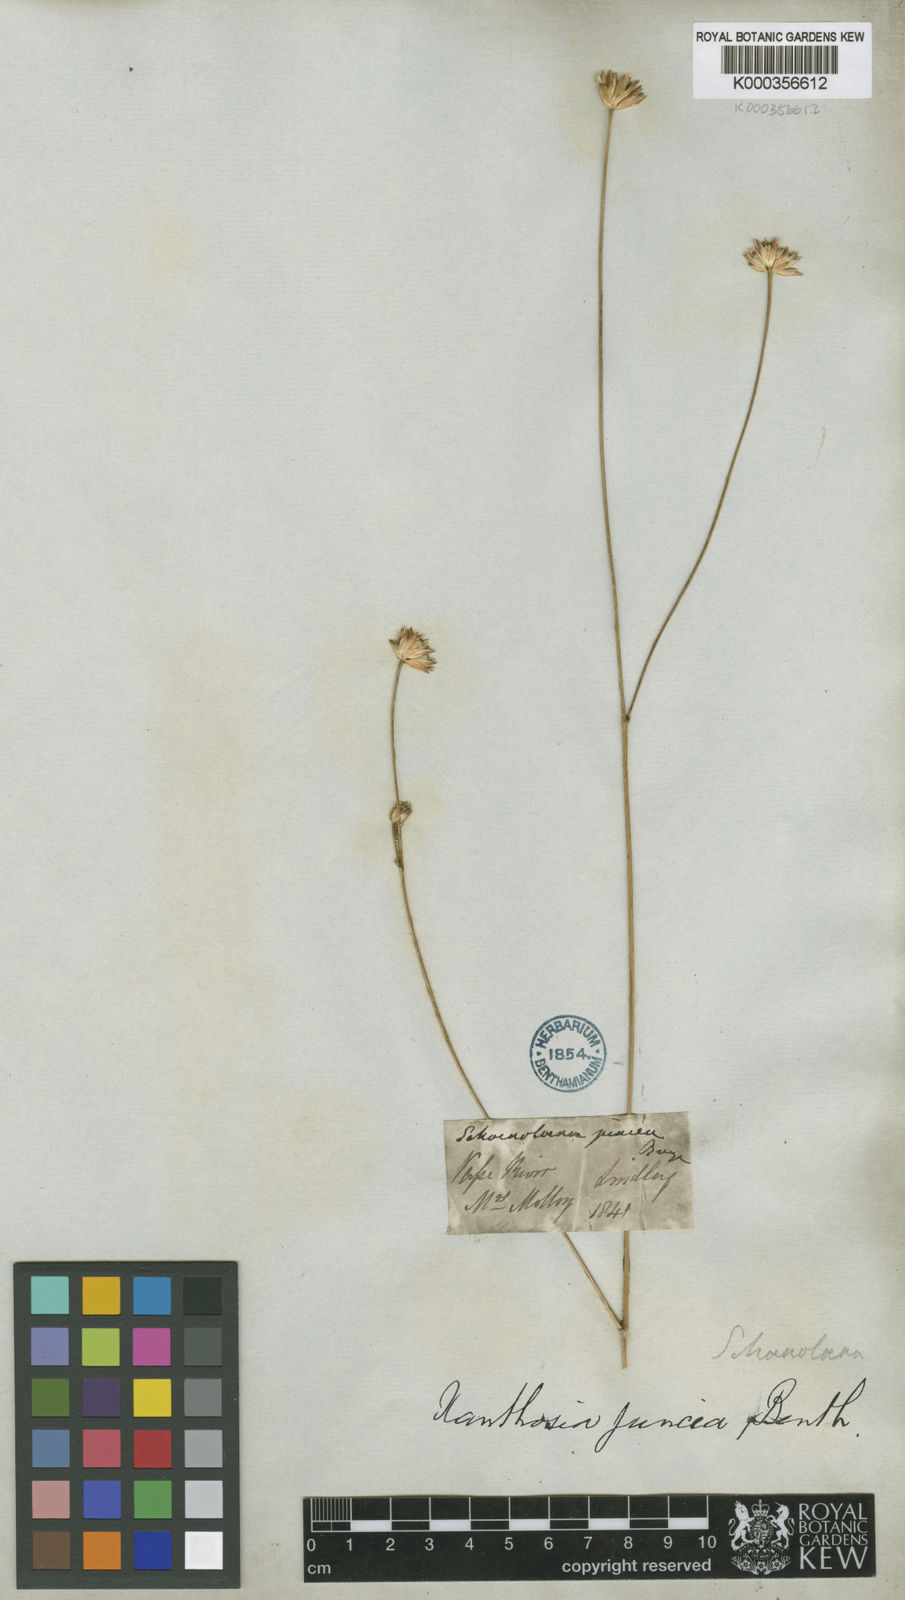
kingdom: Plantae
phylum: Tracheophyta
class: Magnoliopsida
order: Apiales
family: Apiaceae
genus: Schoenolaena
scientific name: Schoenolaena juncea
